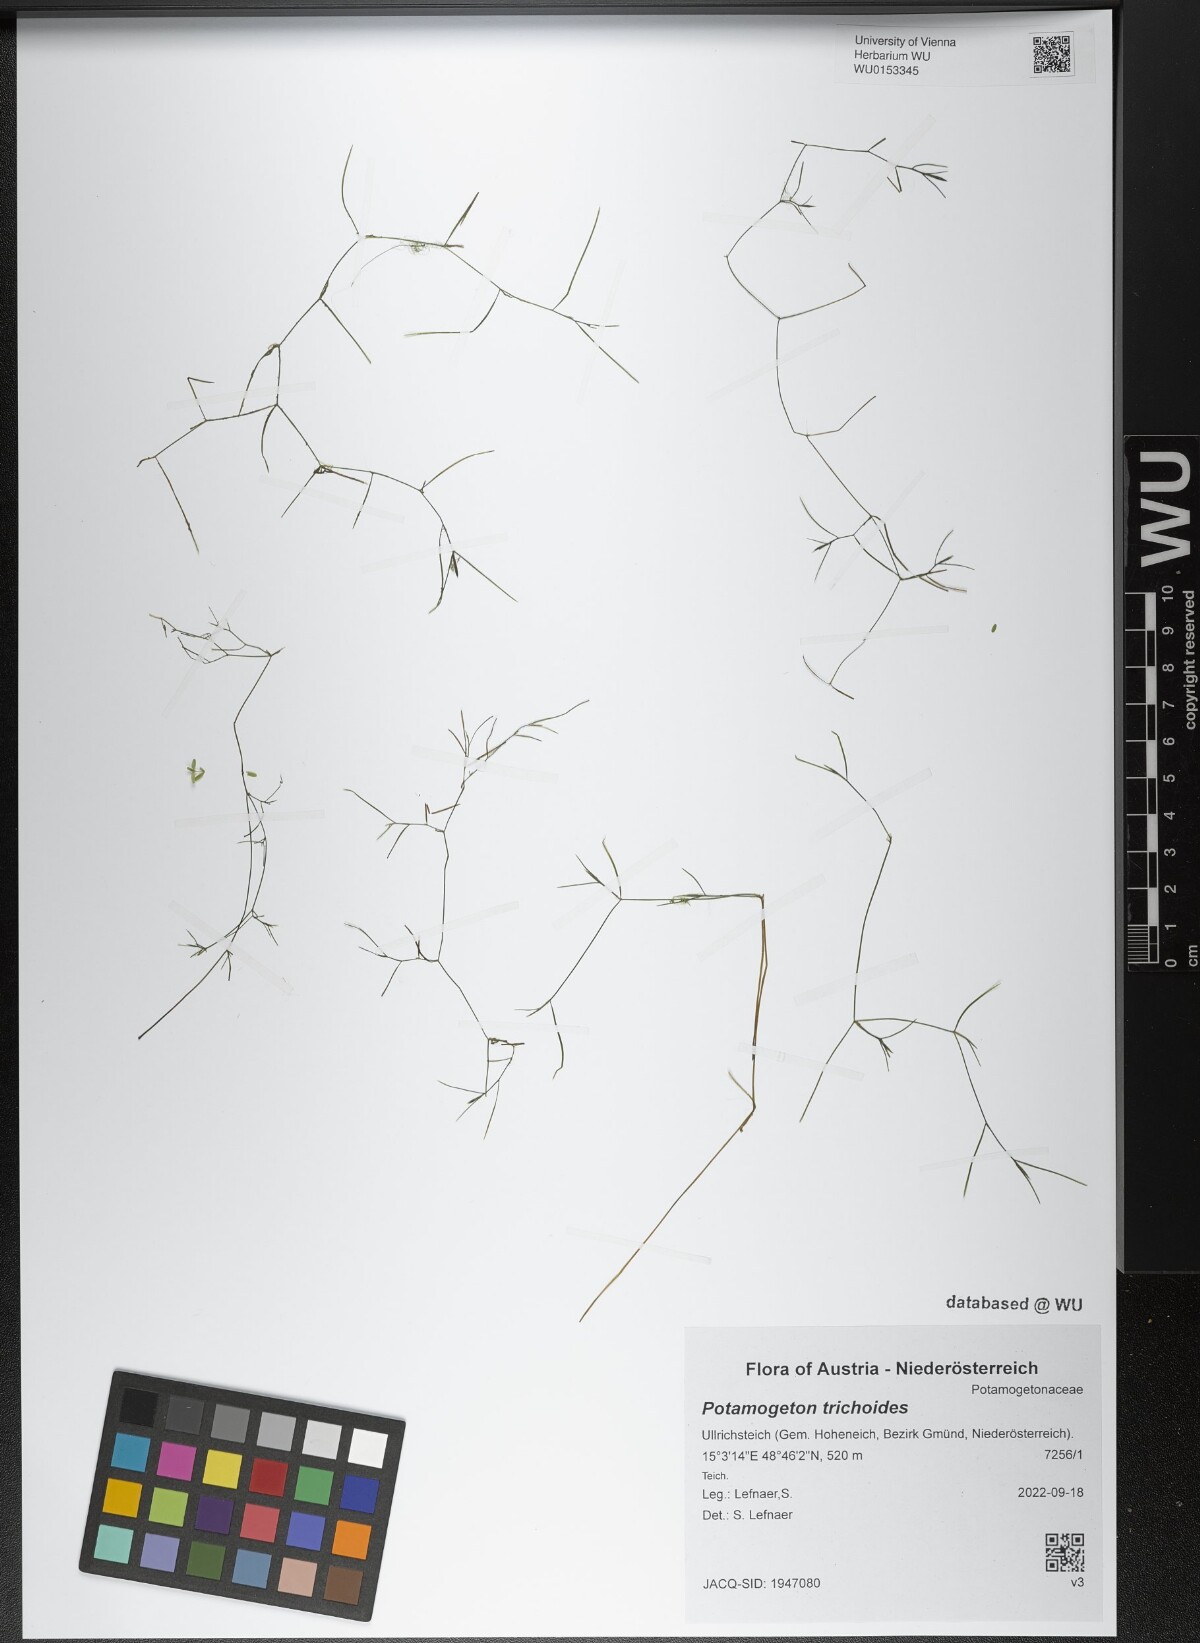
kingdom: Plantae
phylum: Tracheophyta
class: Liliopsida
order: Alismatales
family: Potamogetonaceae
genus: Potamogeton
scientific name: Potamogeton trichoides
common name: Hairlike pondweed
